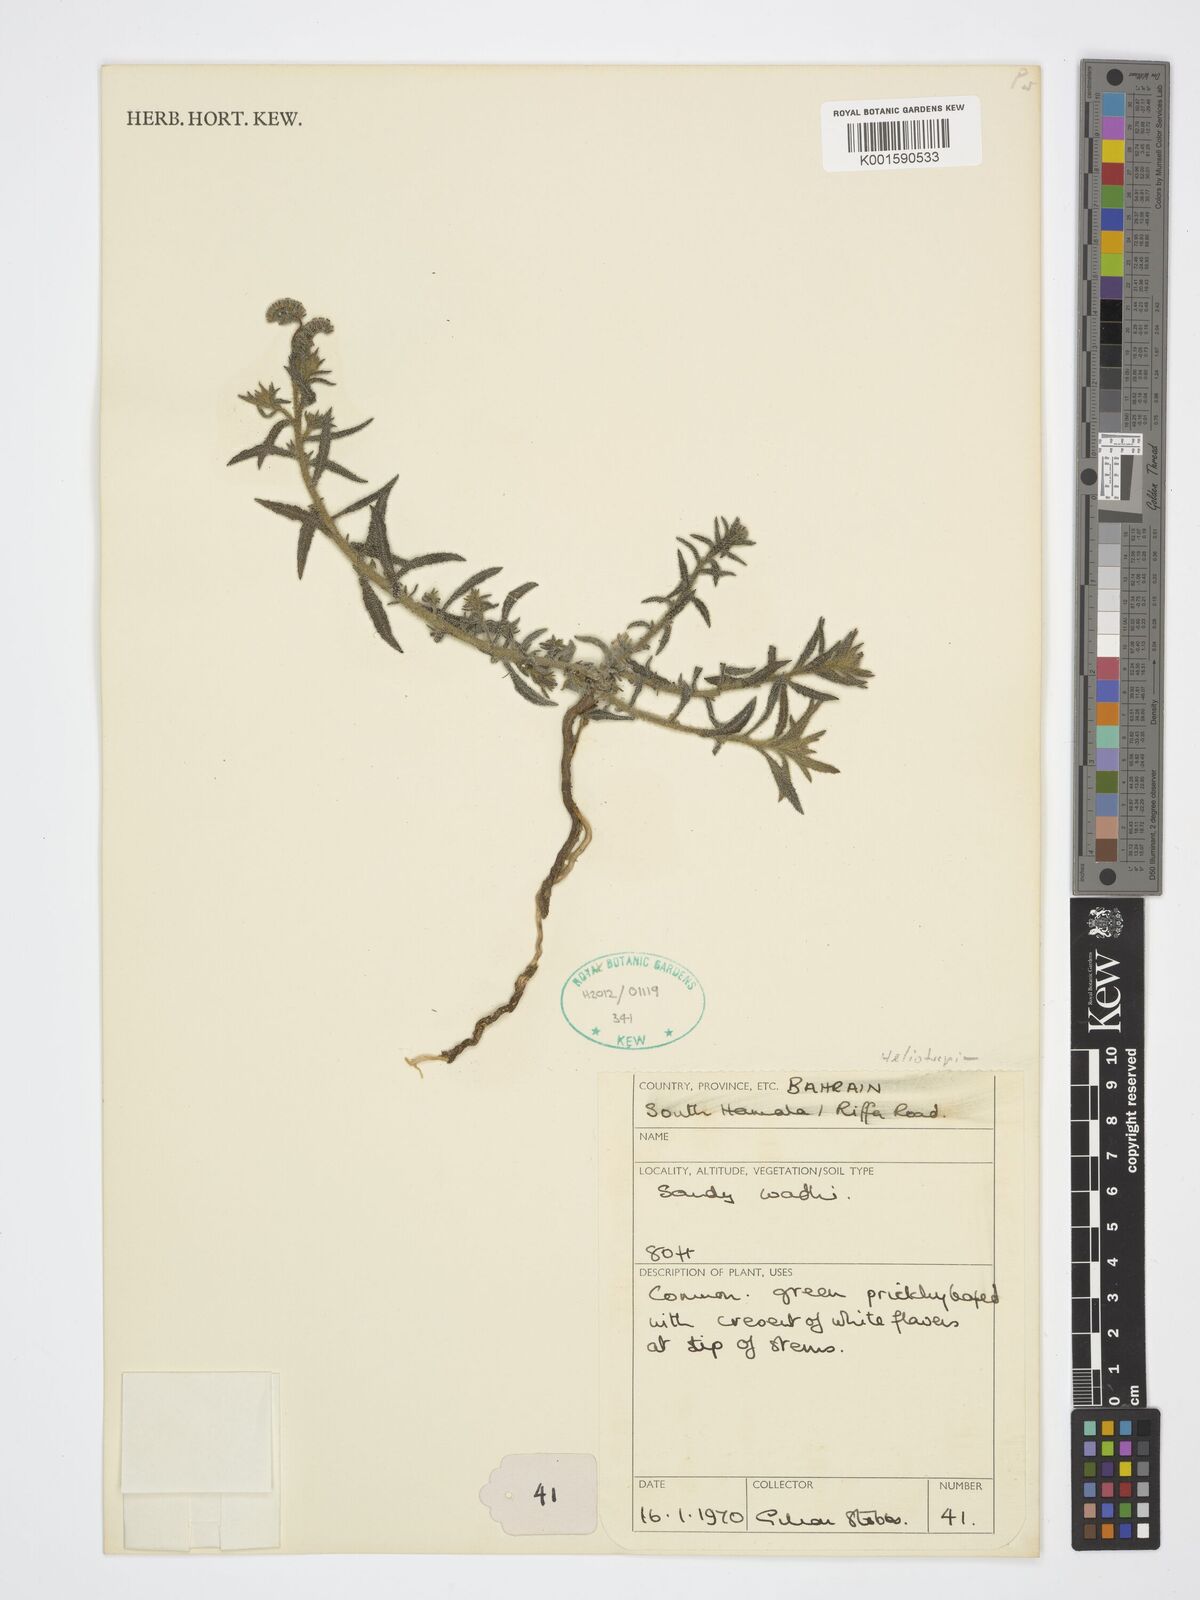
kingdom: Plantae
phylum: Tracheophyta
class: Magnoliopsida
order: Boraginales
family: Heliotropiaceae
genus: Heliotropium
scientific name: Heliotropium
